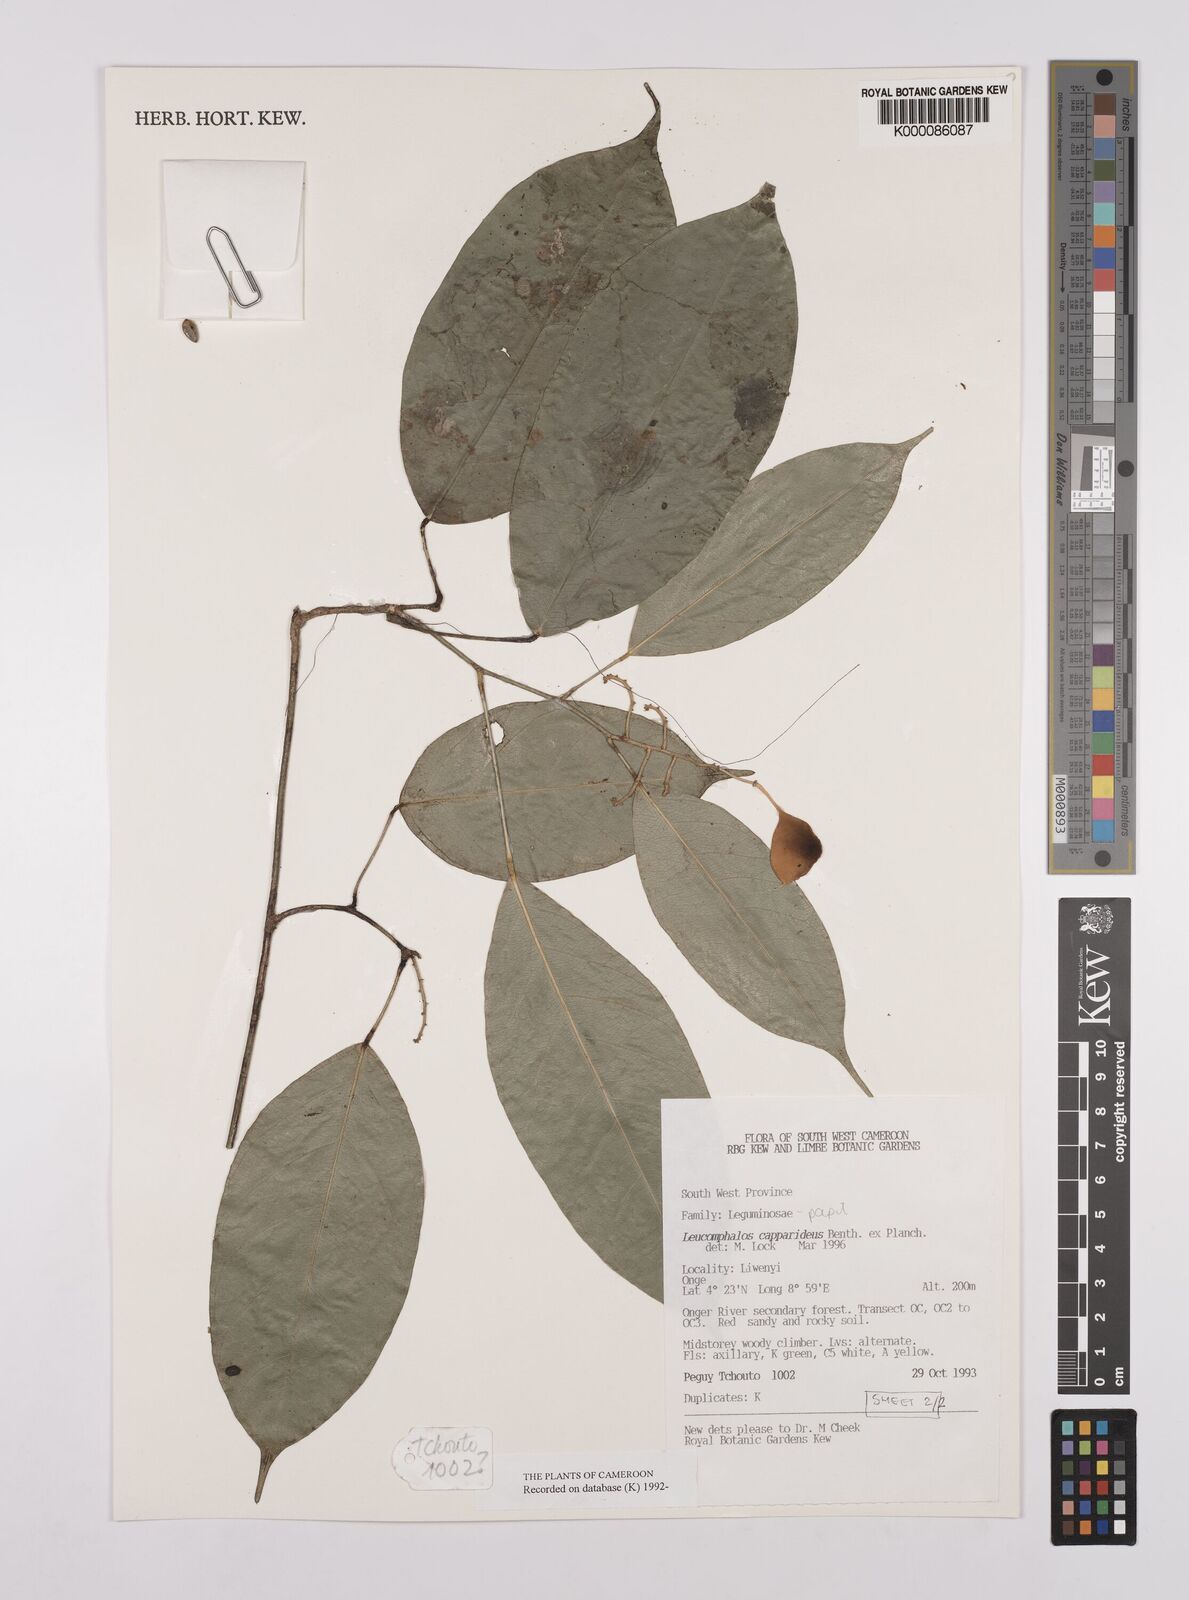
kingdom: Plantae
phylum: Tracheophyta
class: Magnoliopsida
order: Fabales
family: Fabaceae
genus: Leucomphalos
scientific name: Leucomphalos
